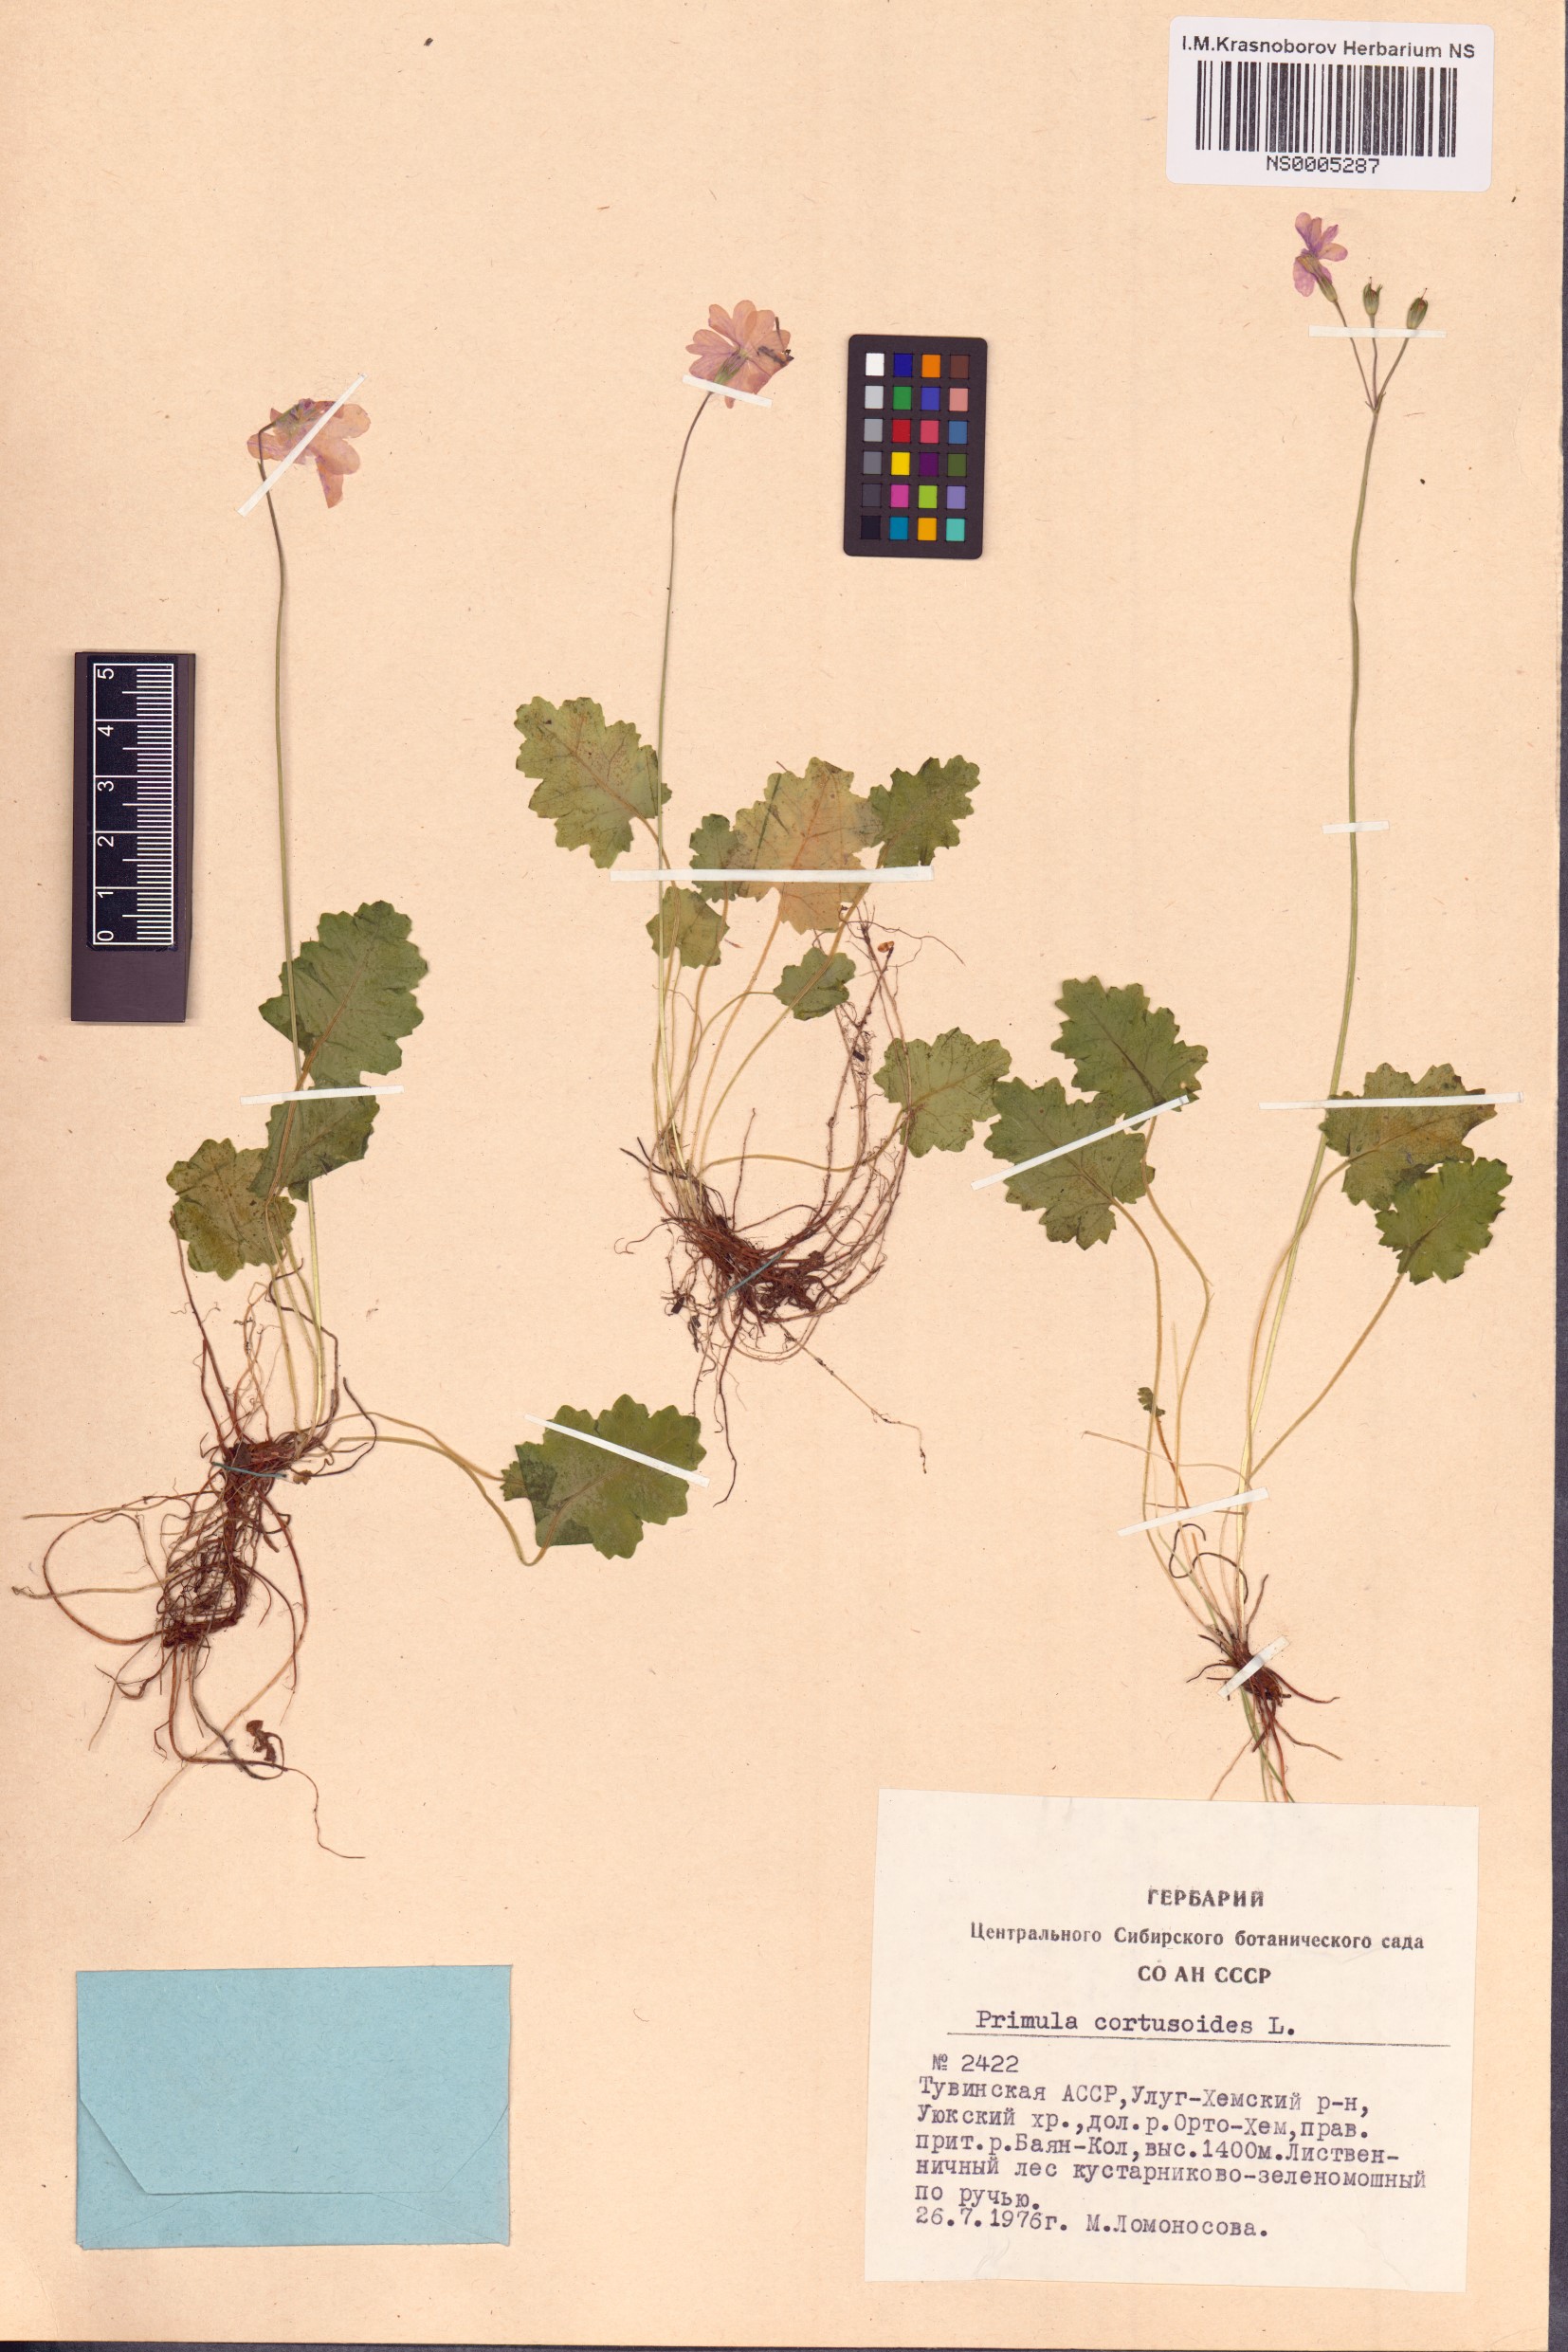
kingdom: Plantae
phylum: Tracheophyta
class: Magnoliopsida
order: Ericales
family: Primulaceae
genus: Primula
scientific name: Primula cortusoides
